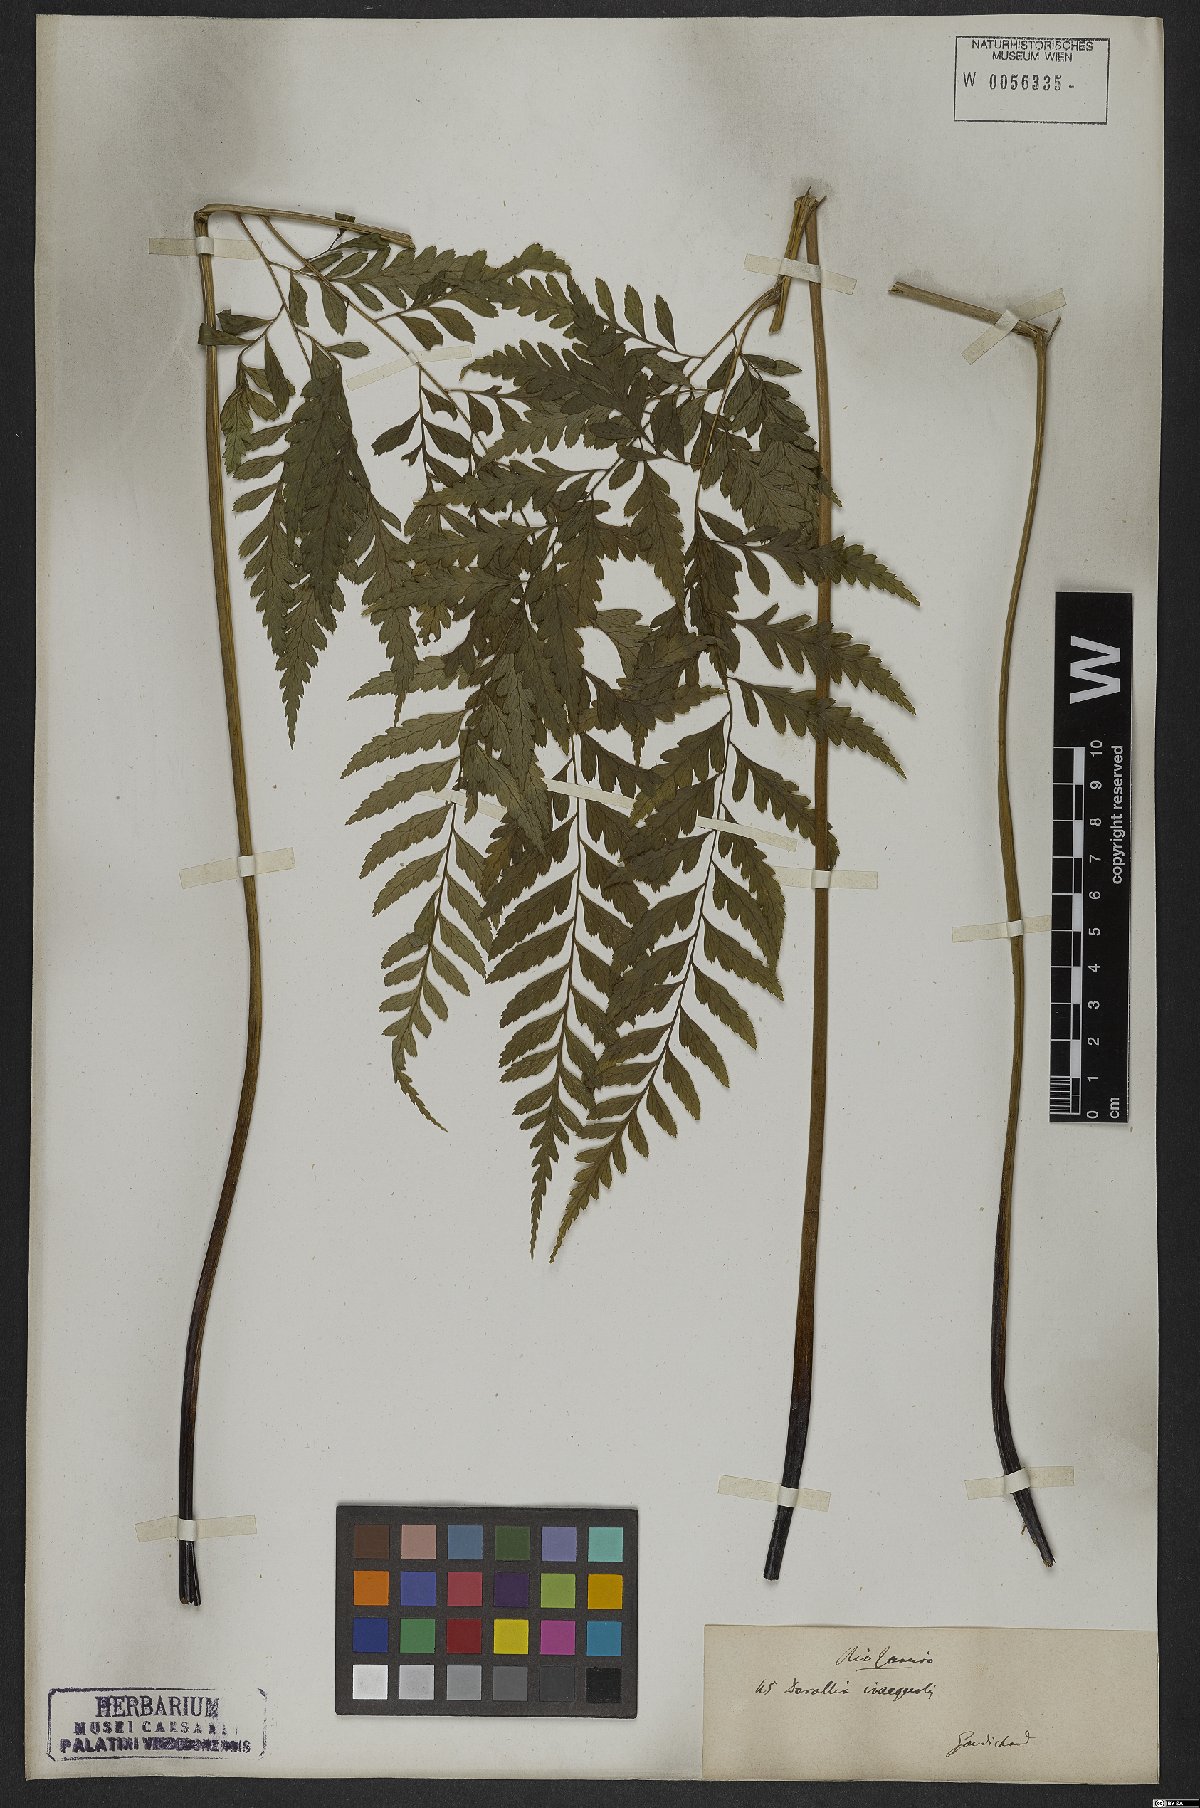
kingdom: Plantae
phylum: Tracheophyta
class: Polypodiopsida
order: Polypodiales
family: Saccolomataceae
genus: Saccoloma
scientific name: Saccoloma inaequale
